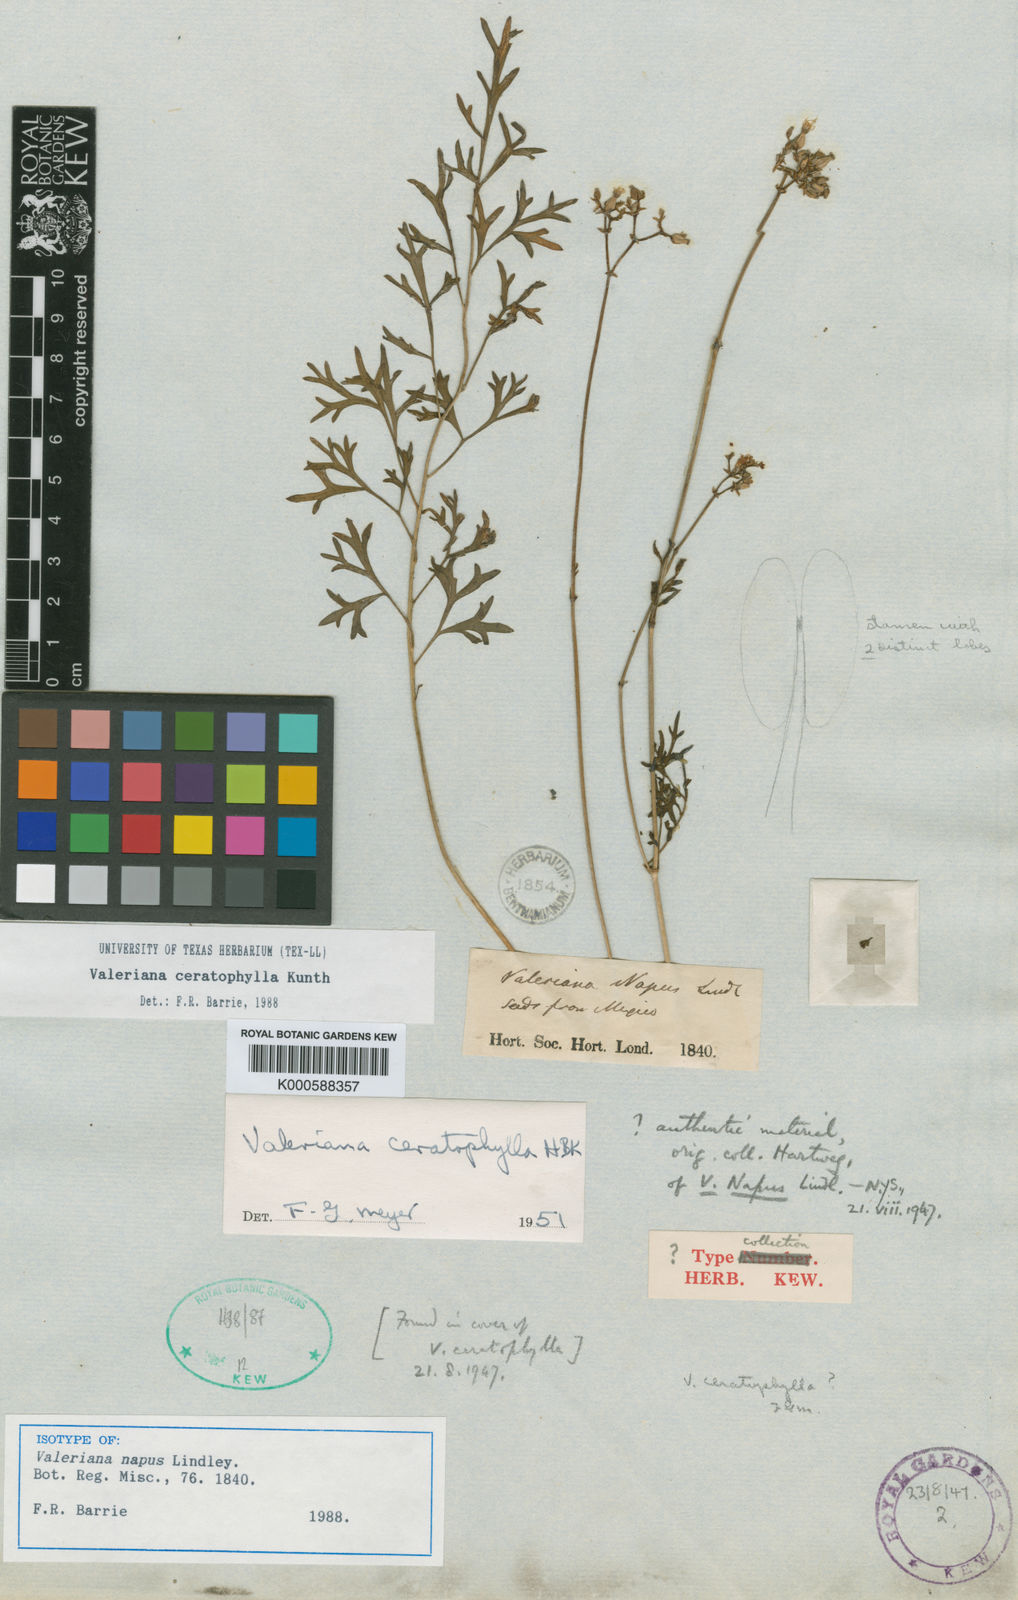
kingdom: Plantae
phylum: Tracheophyta
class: Magnoliopsida
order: Dipsacales
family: Caprifoliaceae
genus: Valeriana
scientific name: Valeriana candolleana
